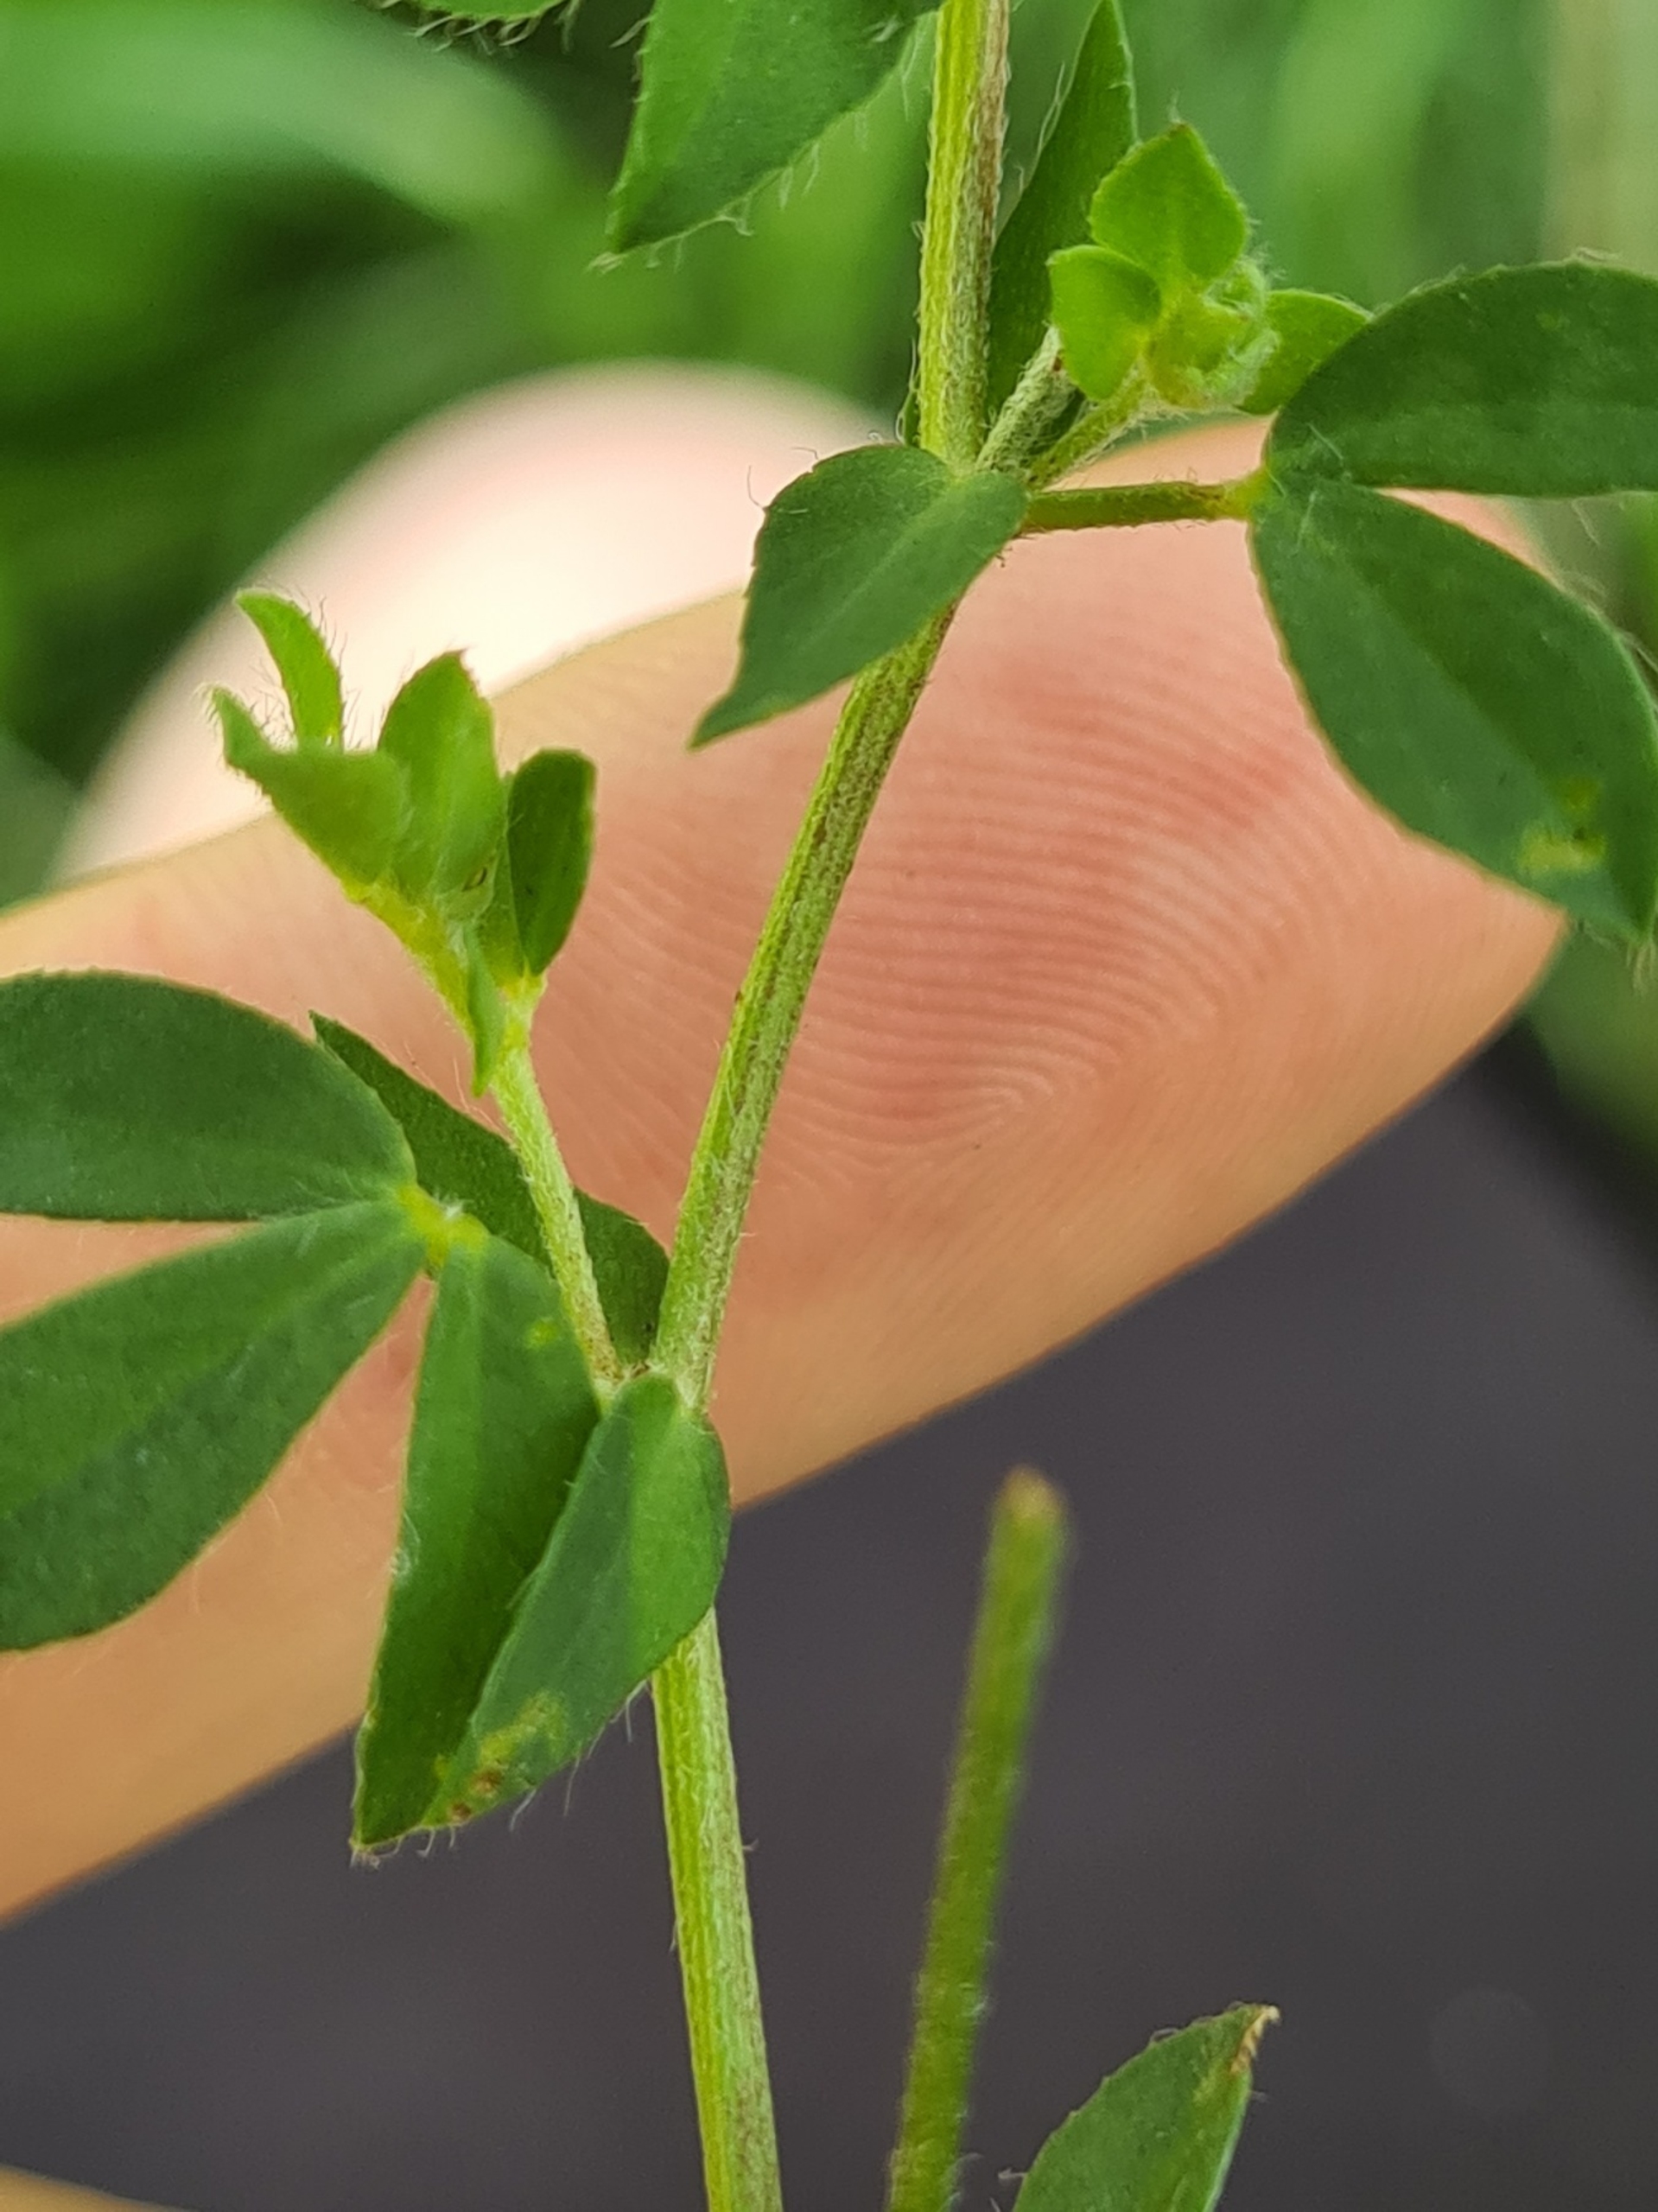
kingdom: Plantae
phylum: Tracheophyta
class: Magnoliopsida
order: Fabales
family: Fabaceae
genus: Lotus
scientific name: Lotus corniculatus
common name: Almindelig kællingetand
